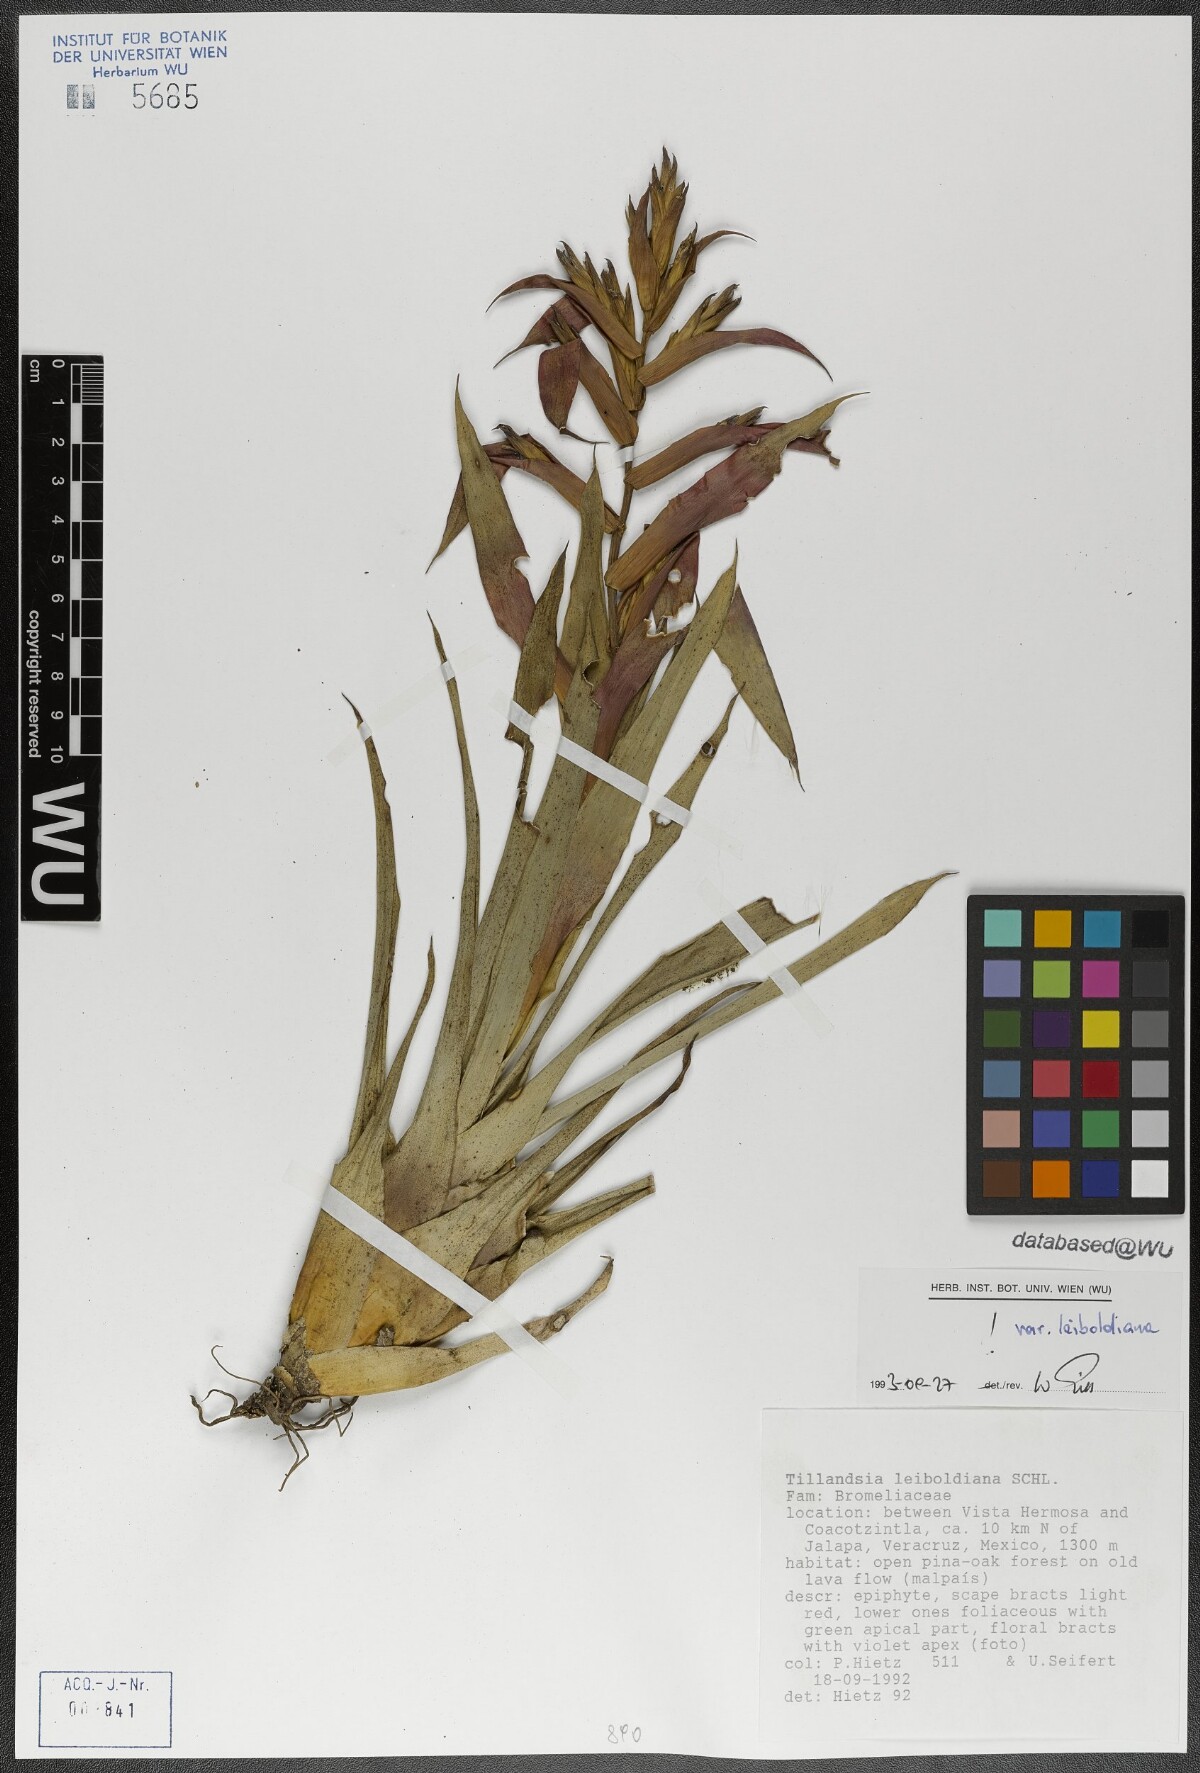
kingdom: Plantae
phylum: Tracheophyta
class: Liliopsida
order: Poales
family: Bromeliaceae
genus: Tillandsia
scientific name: Tillandsia leiboldiana
